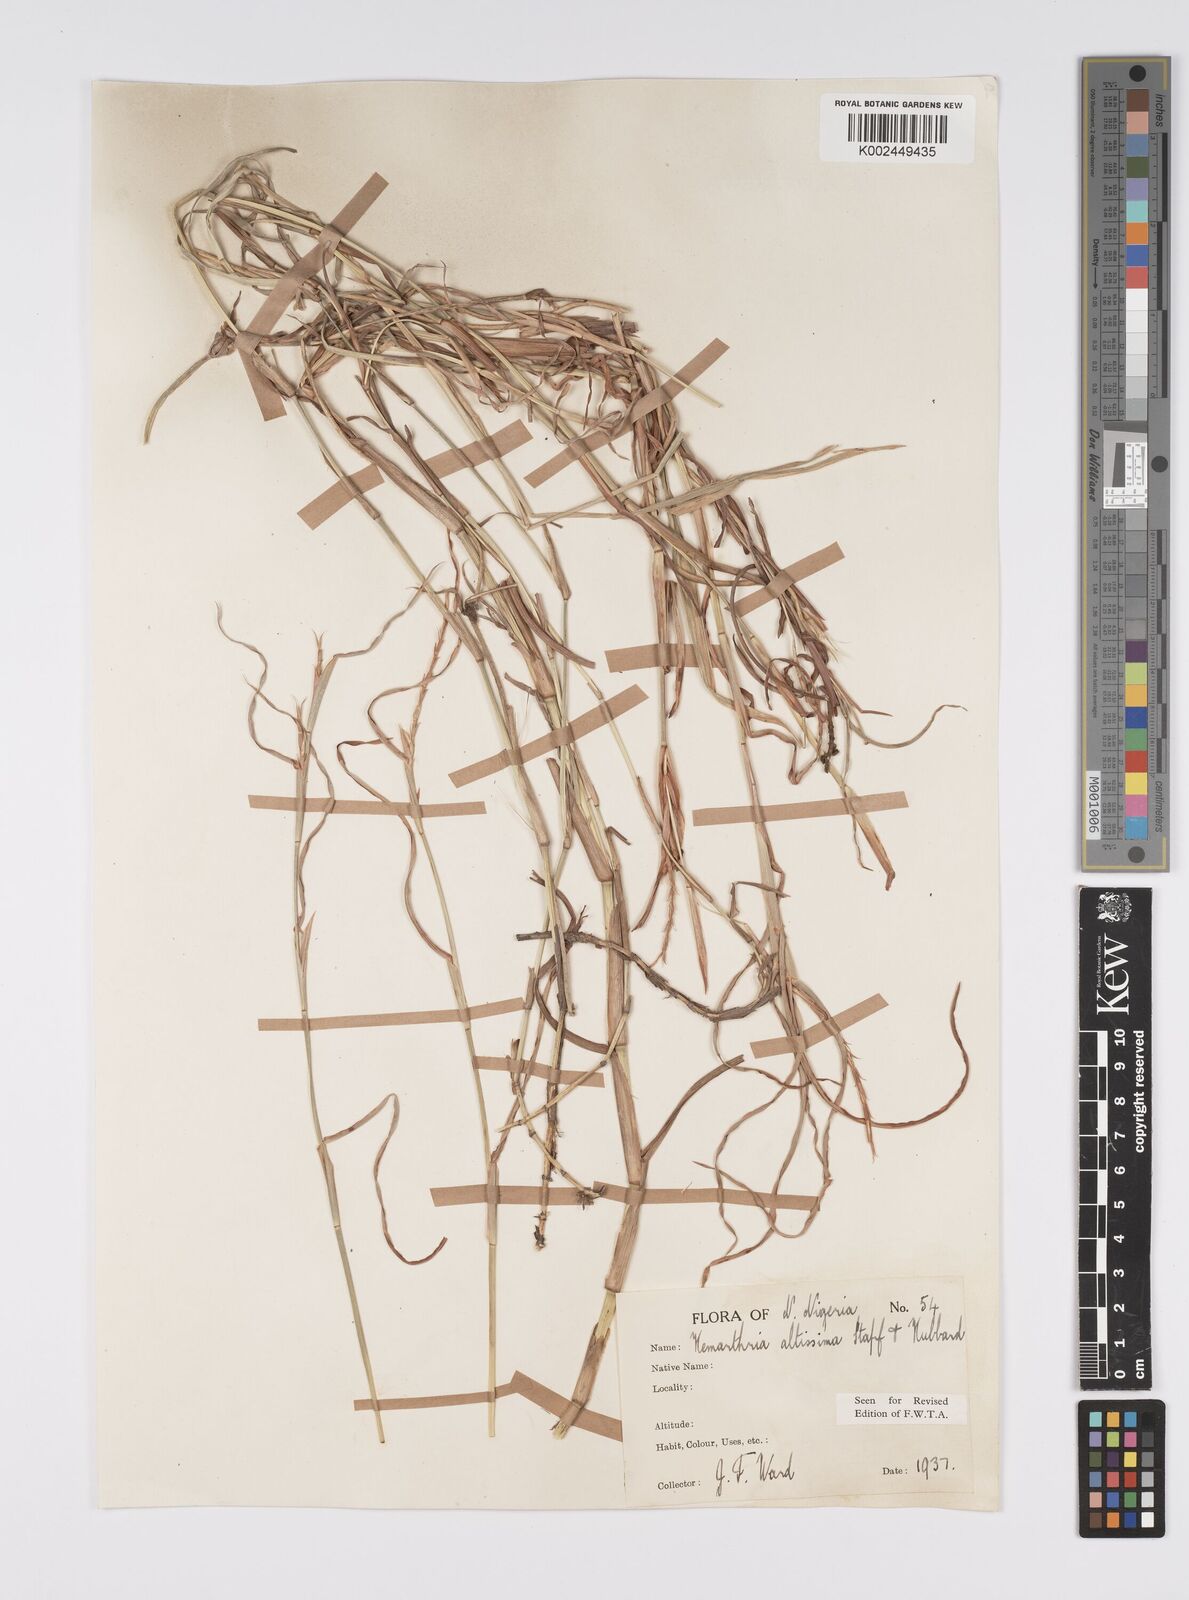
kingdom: Plantae
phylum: Tracheophyta
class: Liliopsida
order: Poales
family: Poaceae
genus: Hemarthria
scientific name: Hemarthria altissima
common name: African jointgrass
